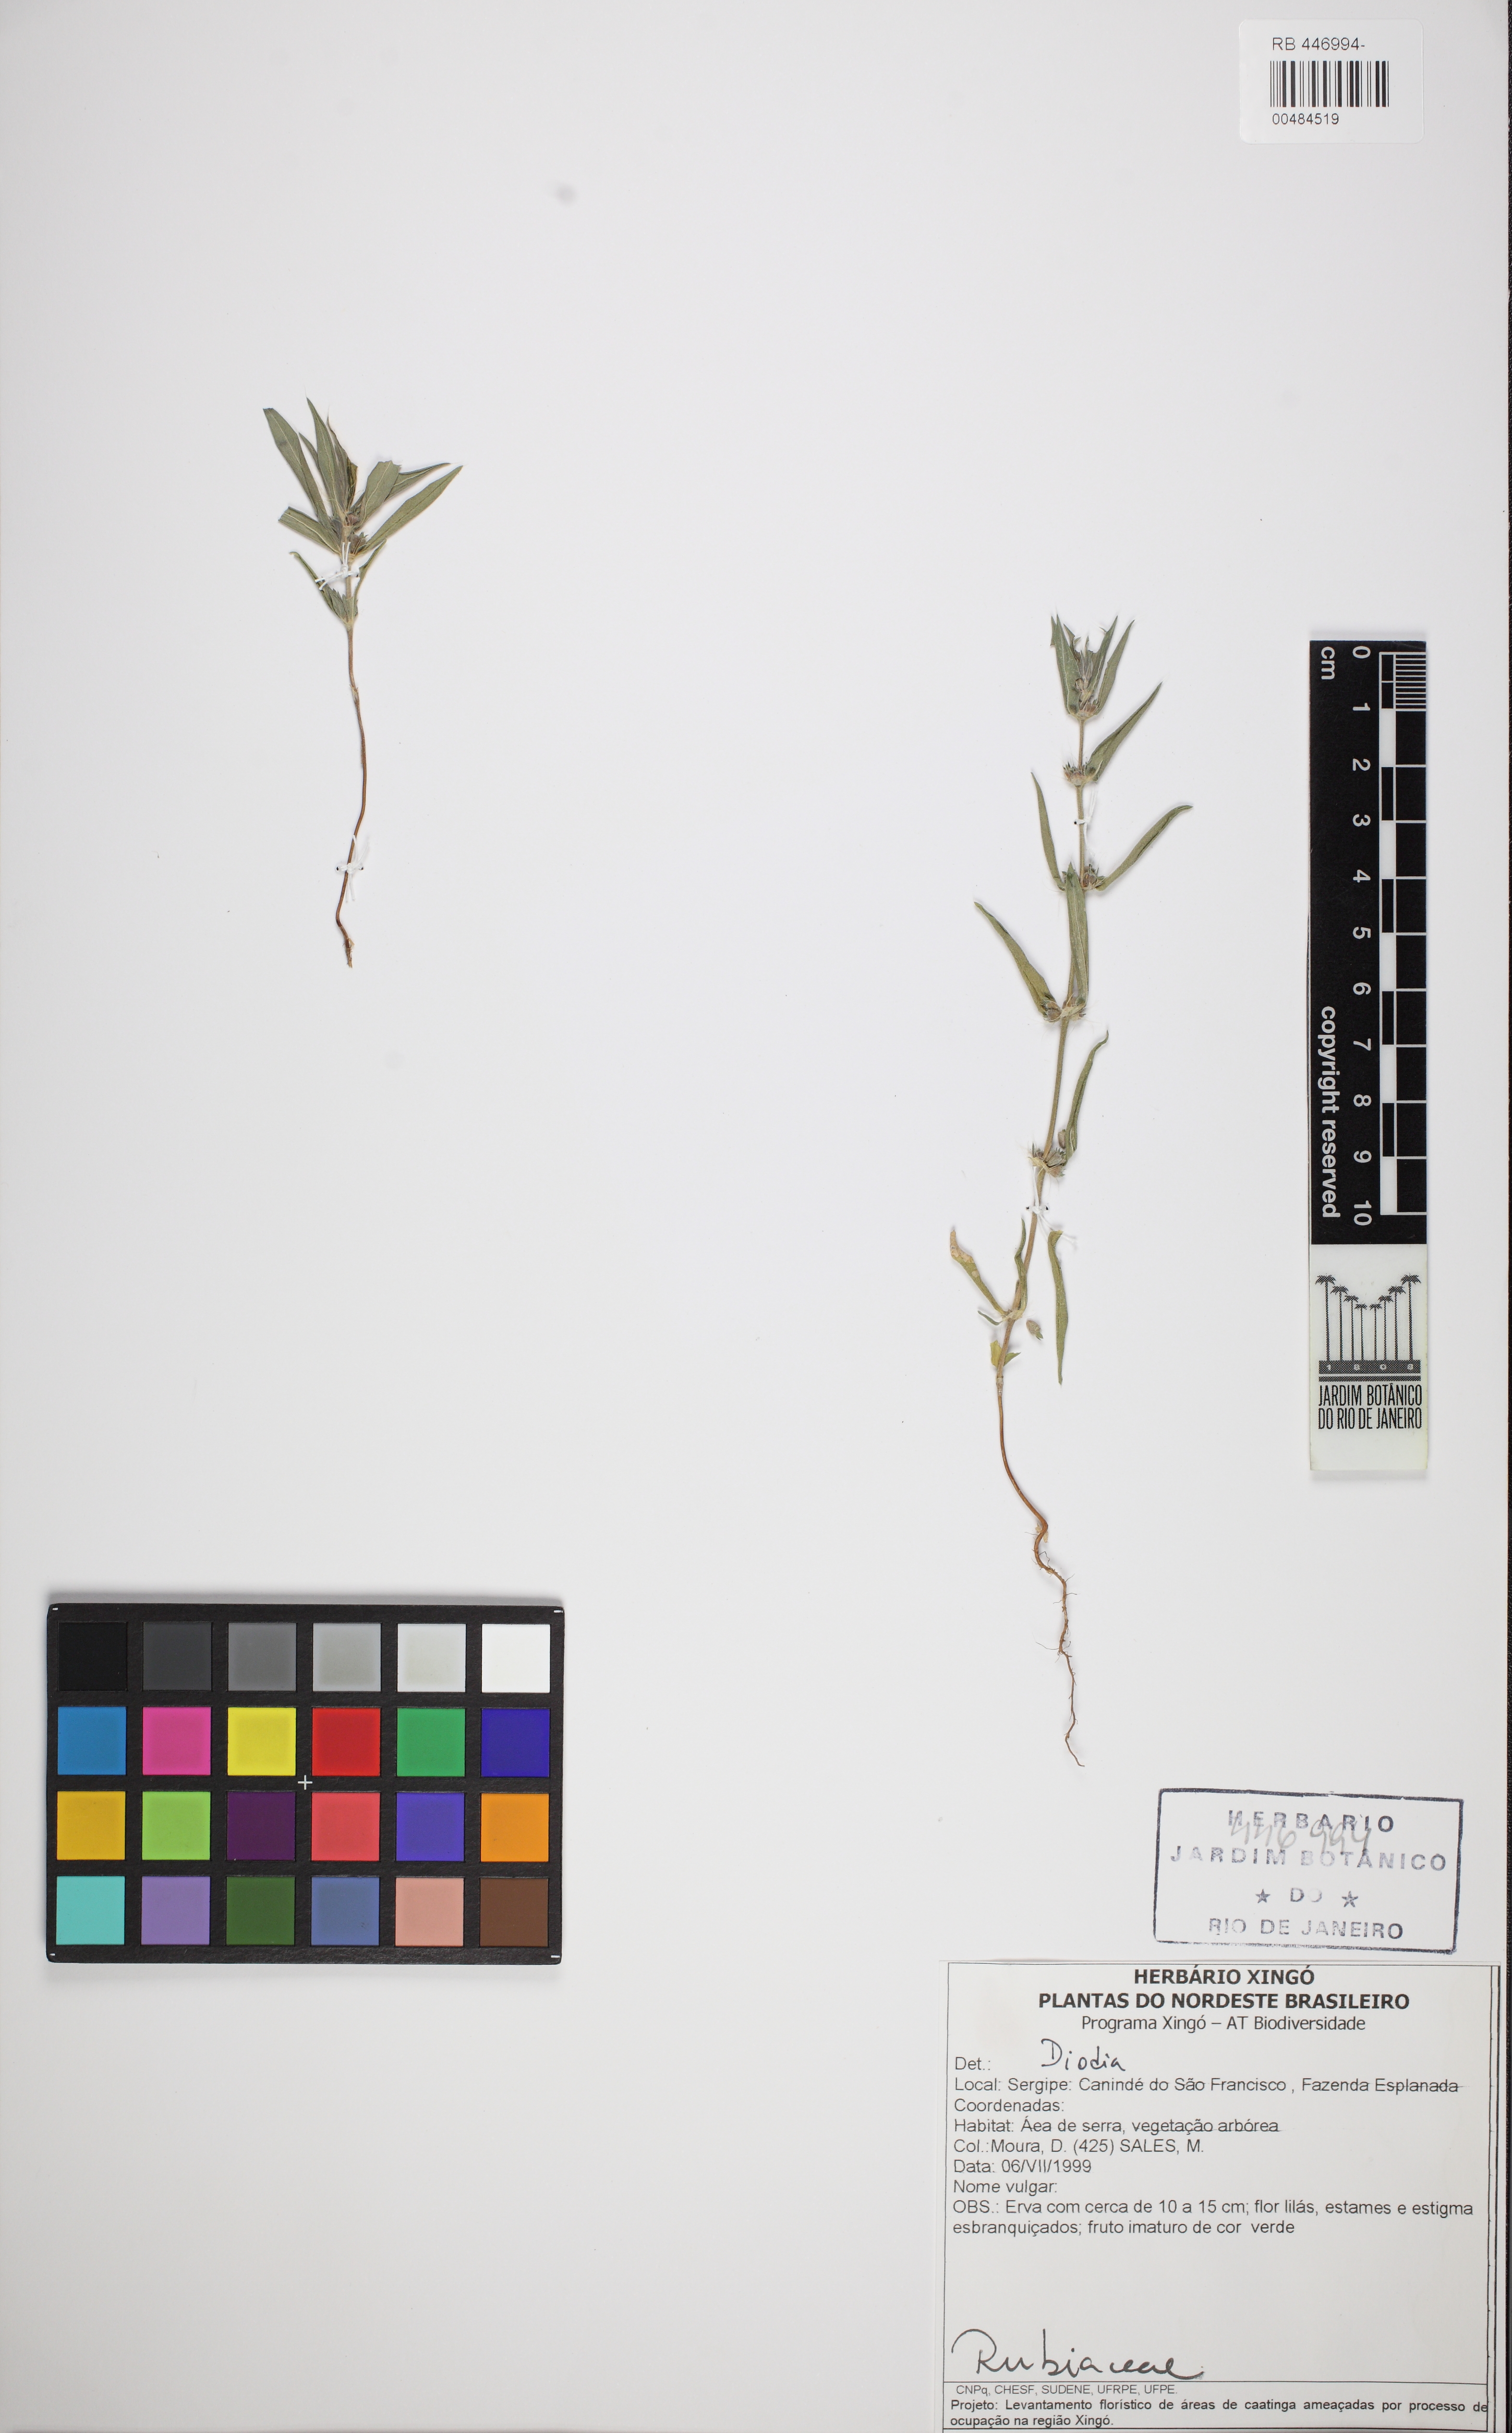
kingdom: Plantae
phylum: Tracheophyta
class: Magnoliopsida
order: Gentianales
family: Rubiaceae
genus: Hexasepalum
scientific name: Hexasepalum apiculatum
